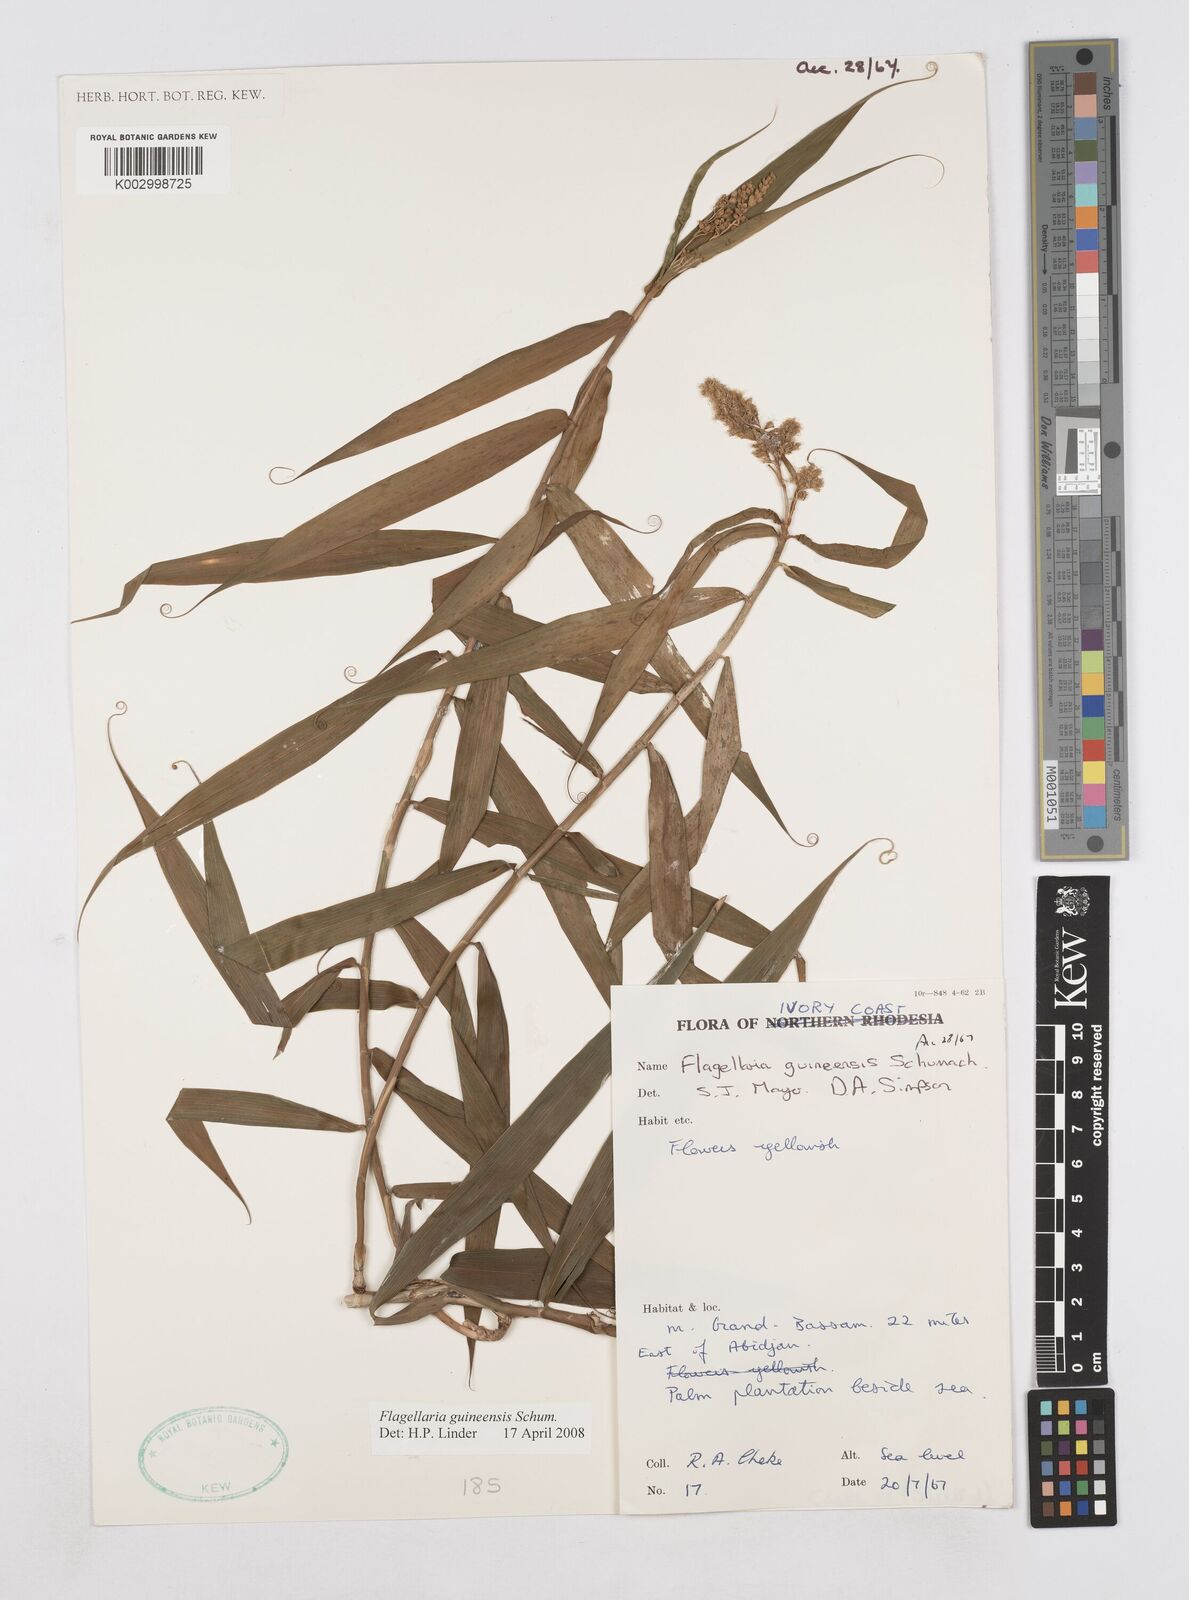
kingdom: Plantae
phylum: Tracheophyta
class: Liliopsida
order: Poales
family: Flagellariaceae
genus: Flagellaria
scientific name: Flagellaria guineensis
